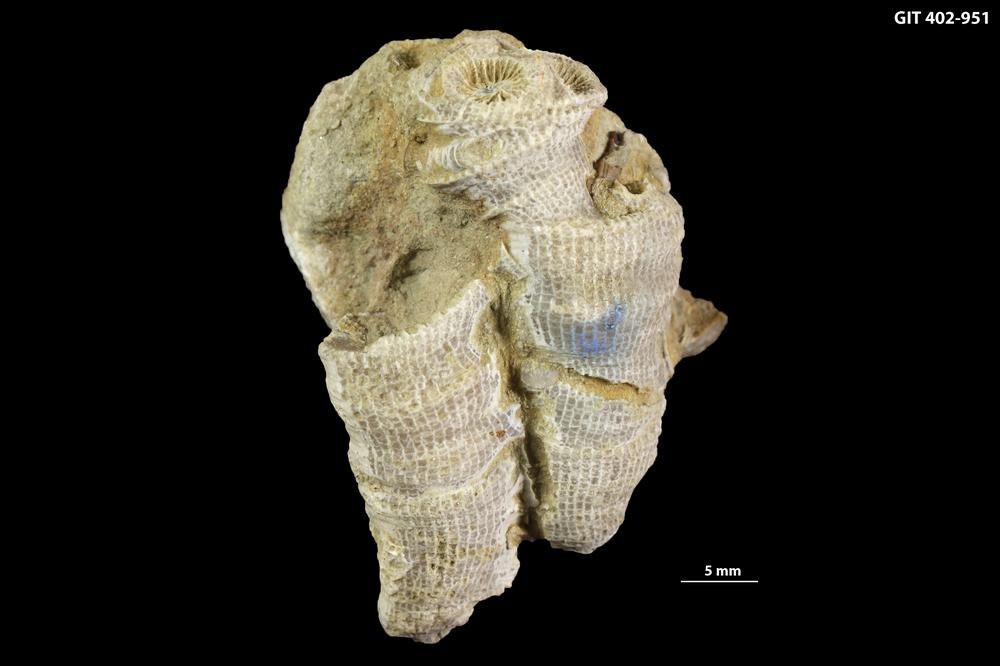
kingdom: Animalia
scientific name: Animalia
